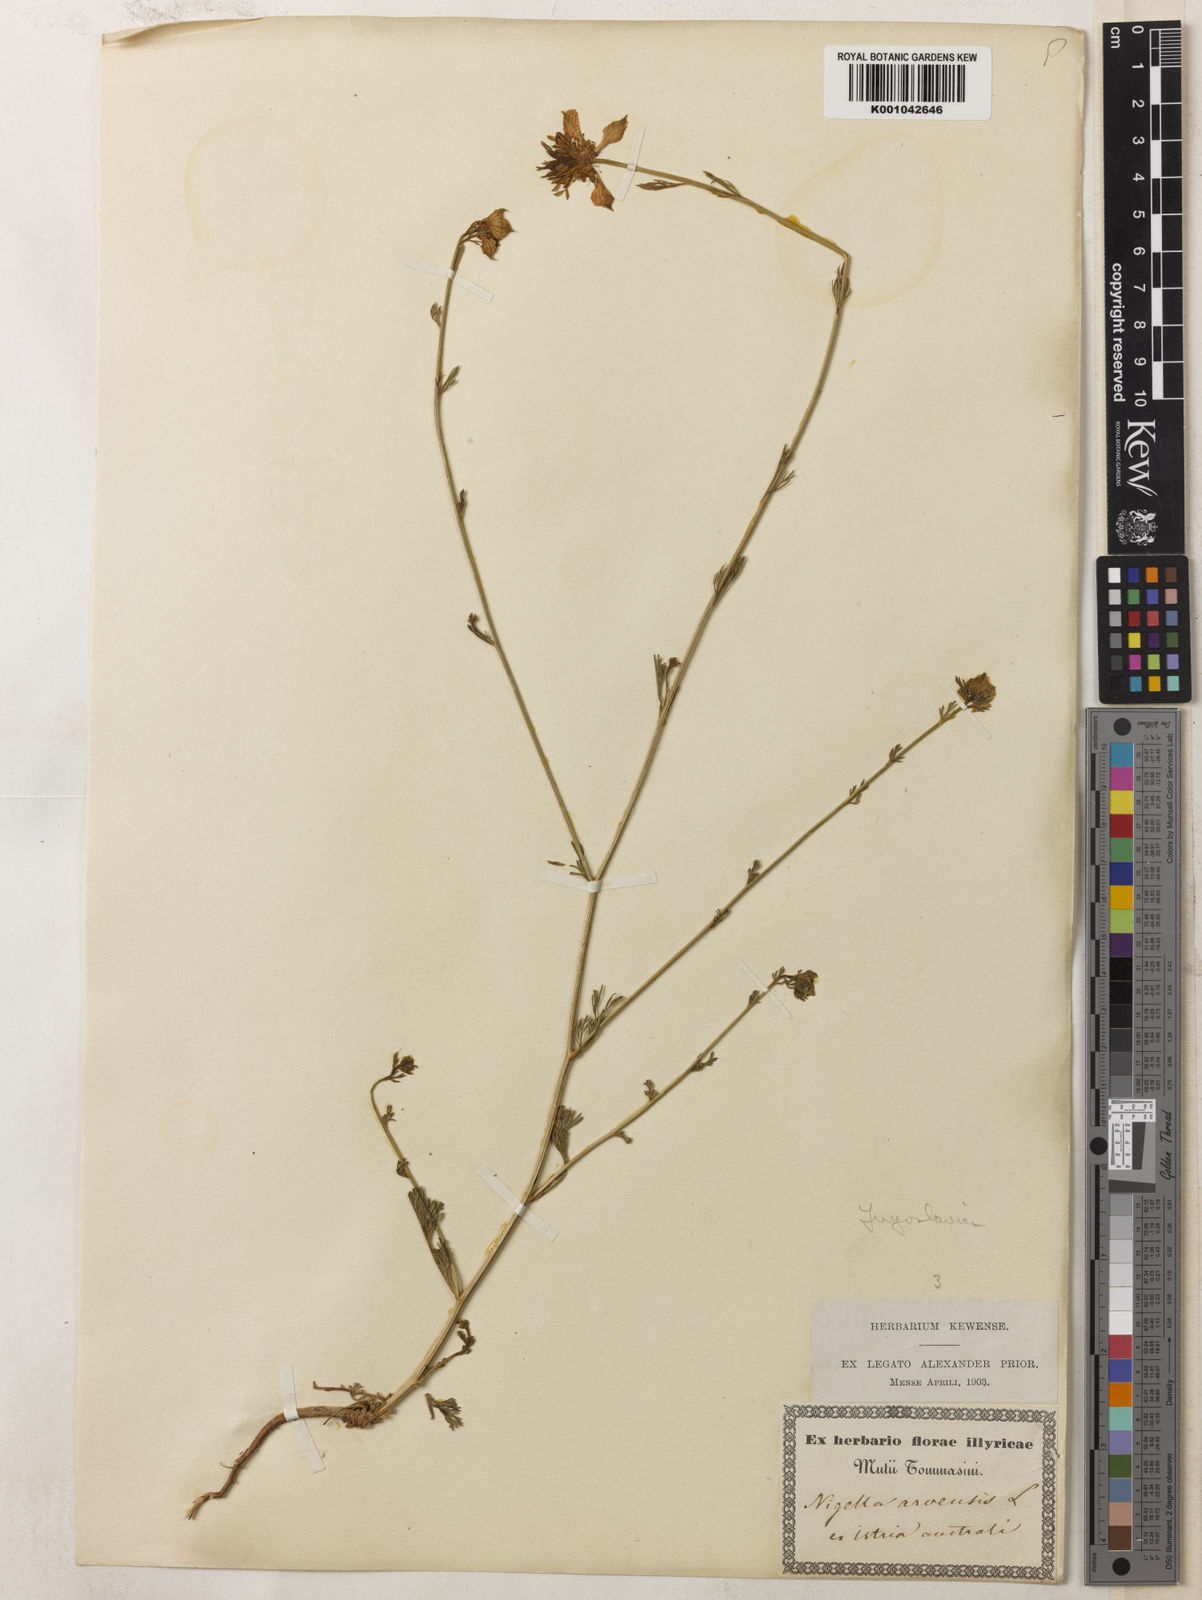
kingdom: Plantae
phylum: Tracheophyta
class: Magnoliopsida
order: Ranunculales
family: Ranunculaceae
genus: Nigella
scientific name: Nigella arvensis
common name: Wild fennel-flower
